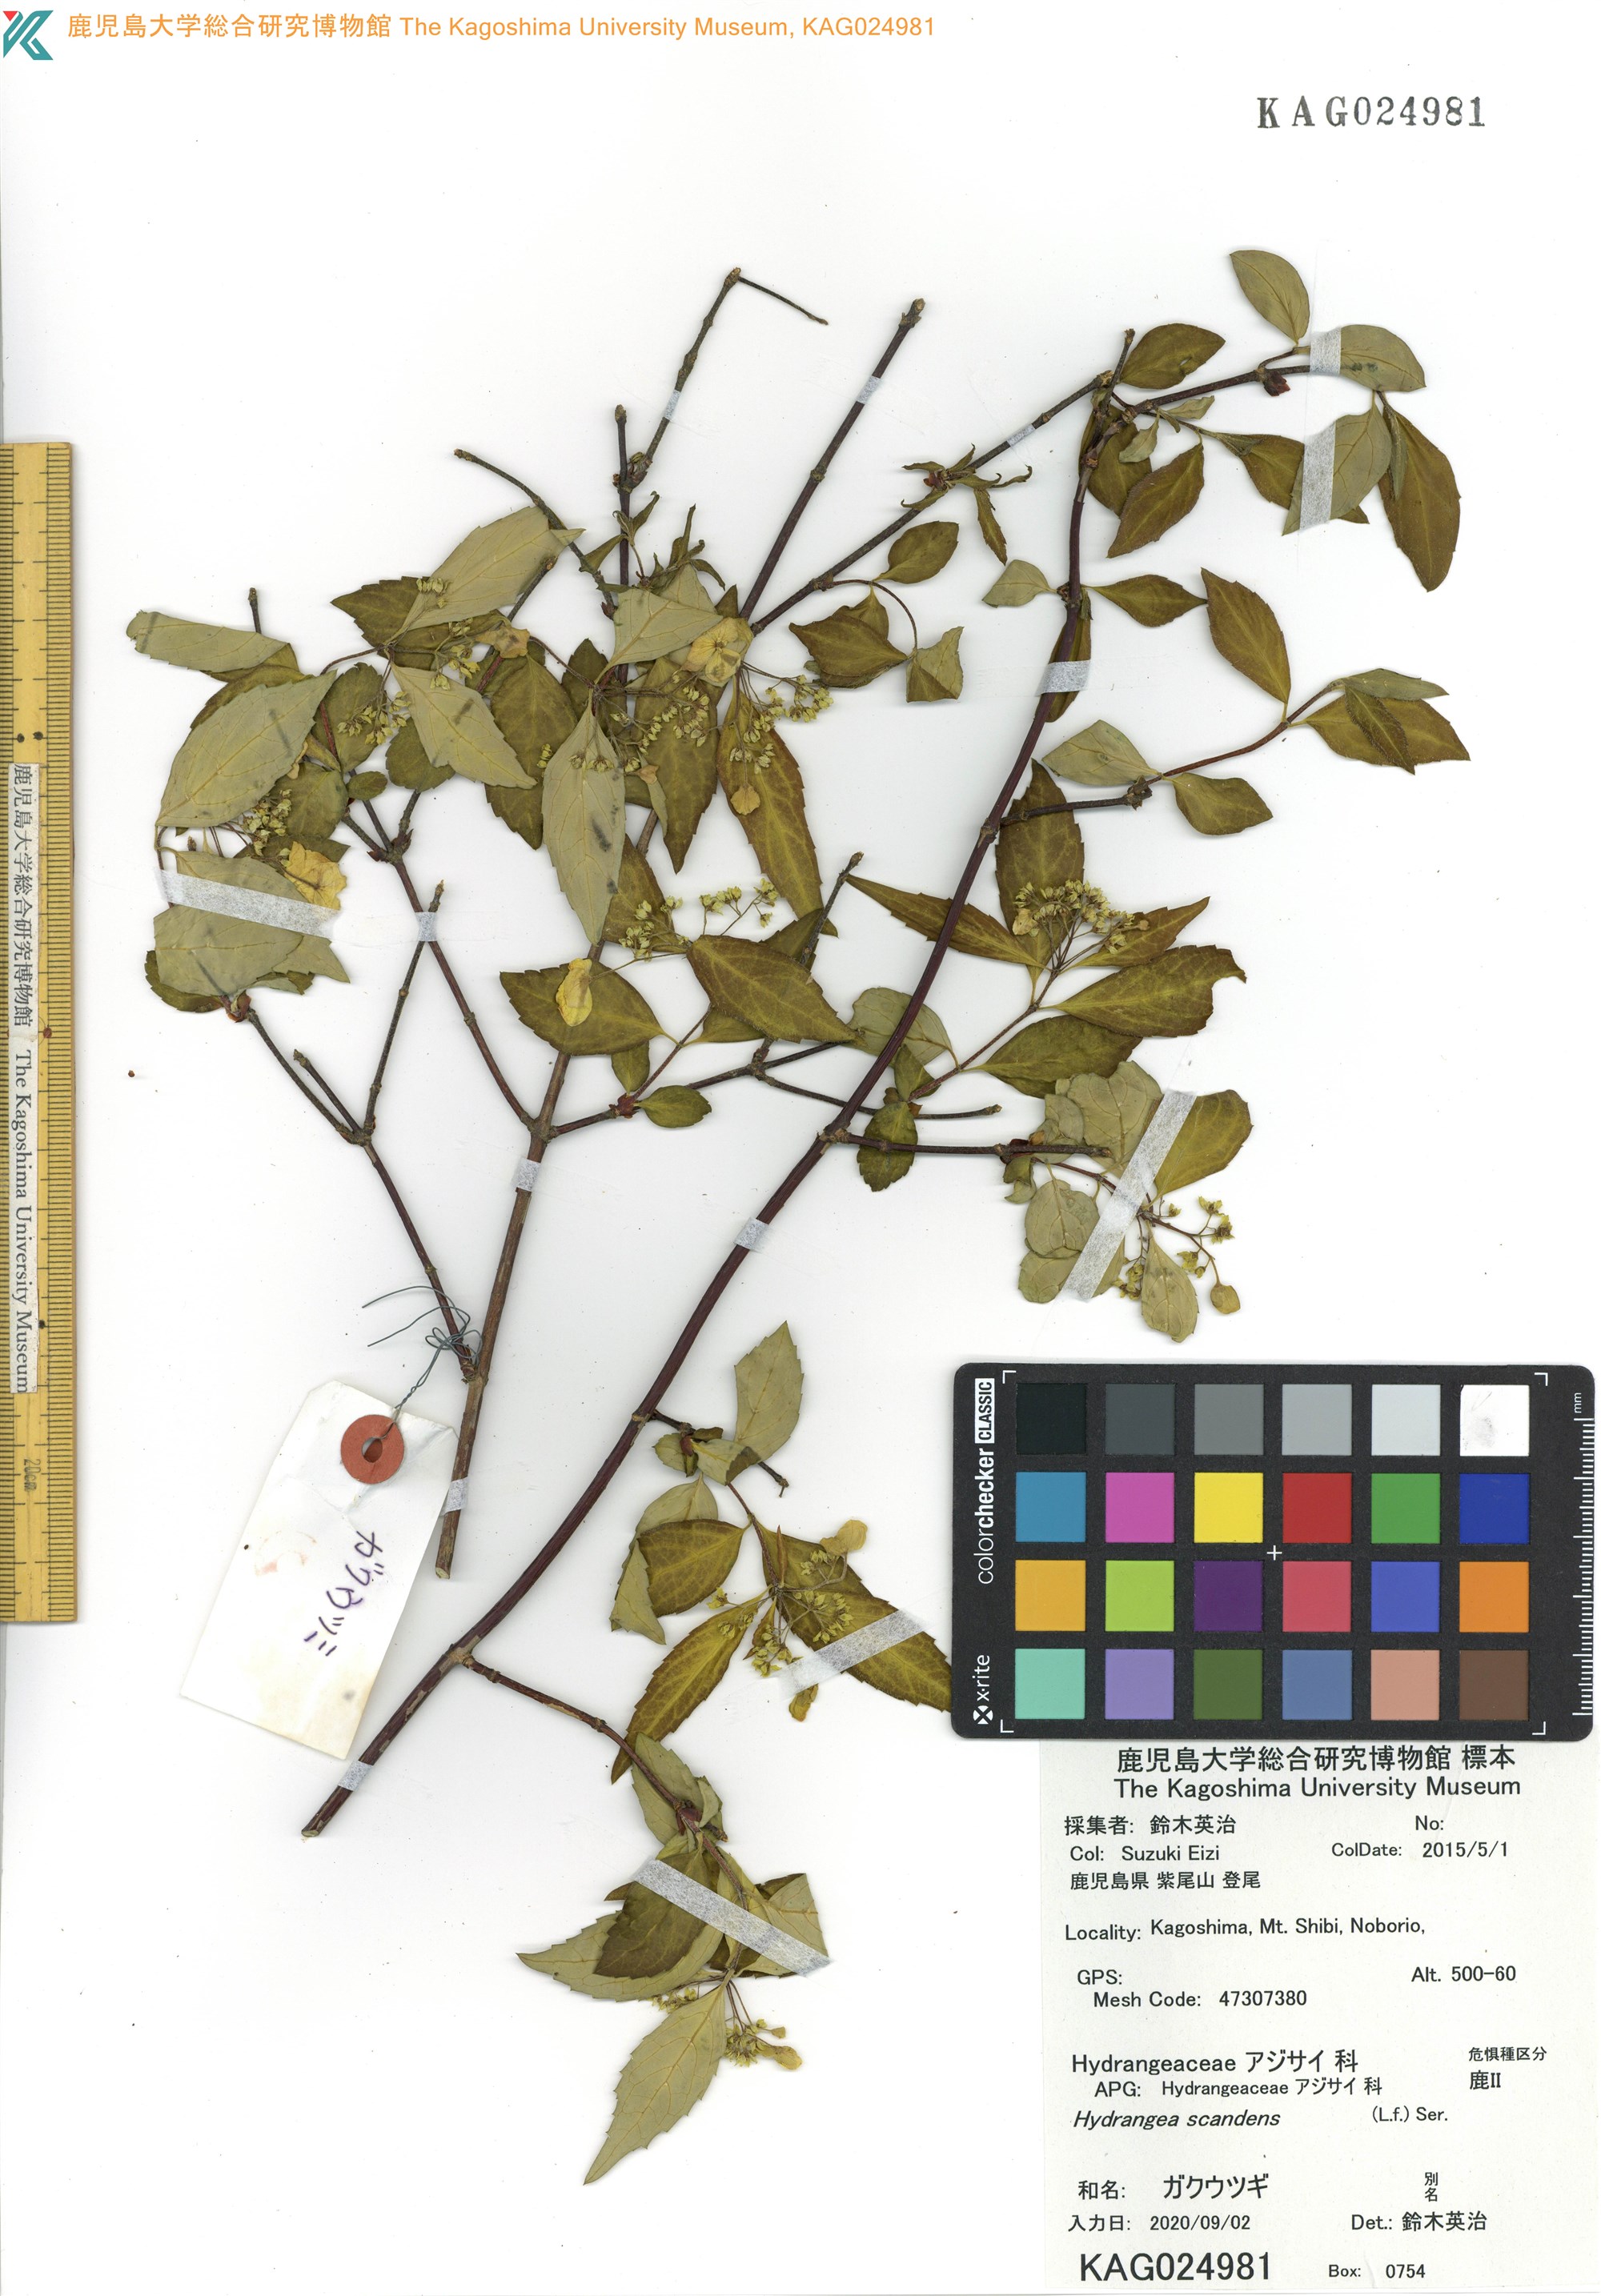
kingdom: Plantae
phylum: Tracheophyta
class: Magnoliopsida
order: Cornales
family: Hydrangeaceae
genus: Hydrangea
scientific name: Hydrangea scandens
